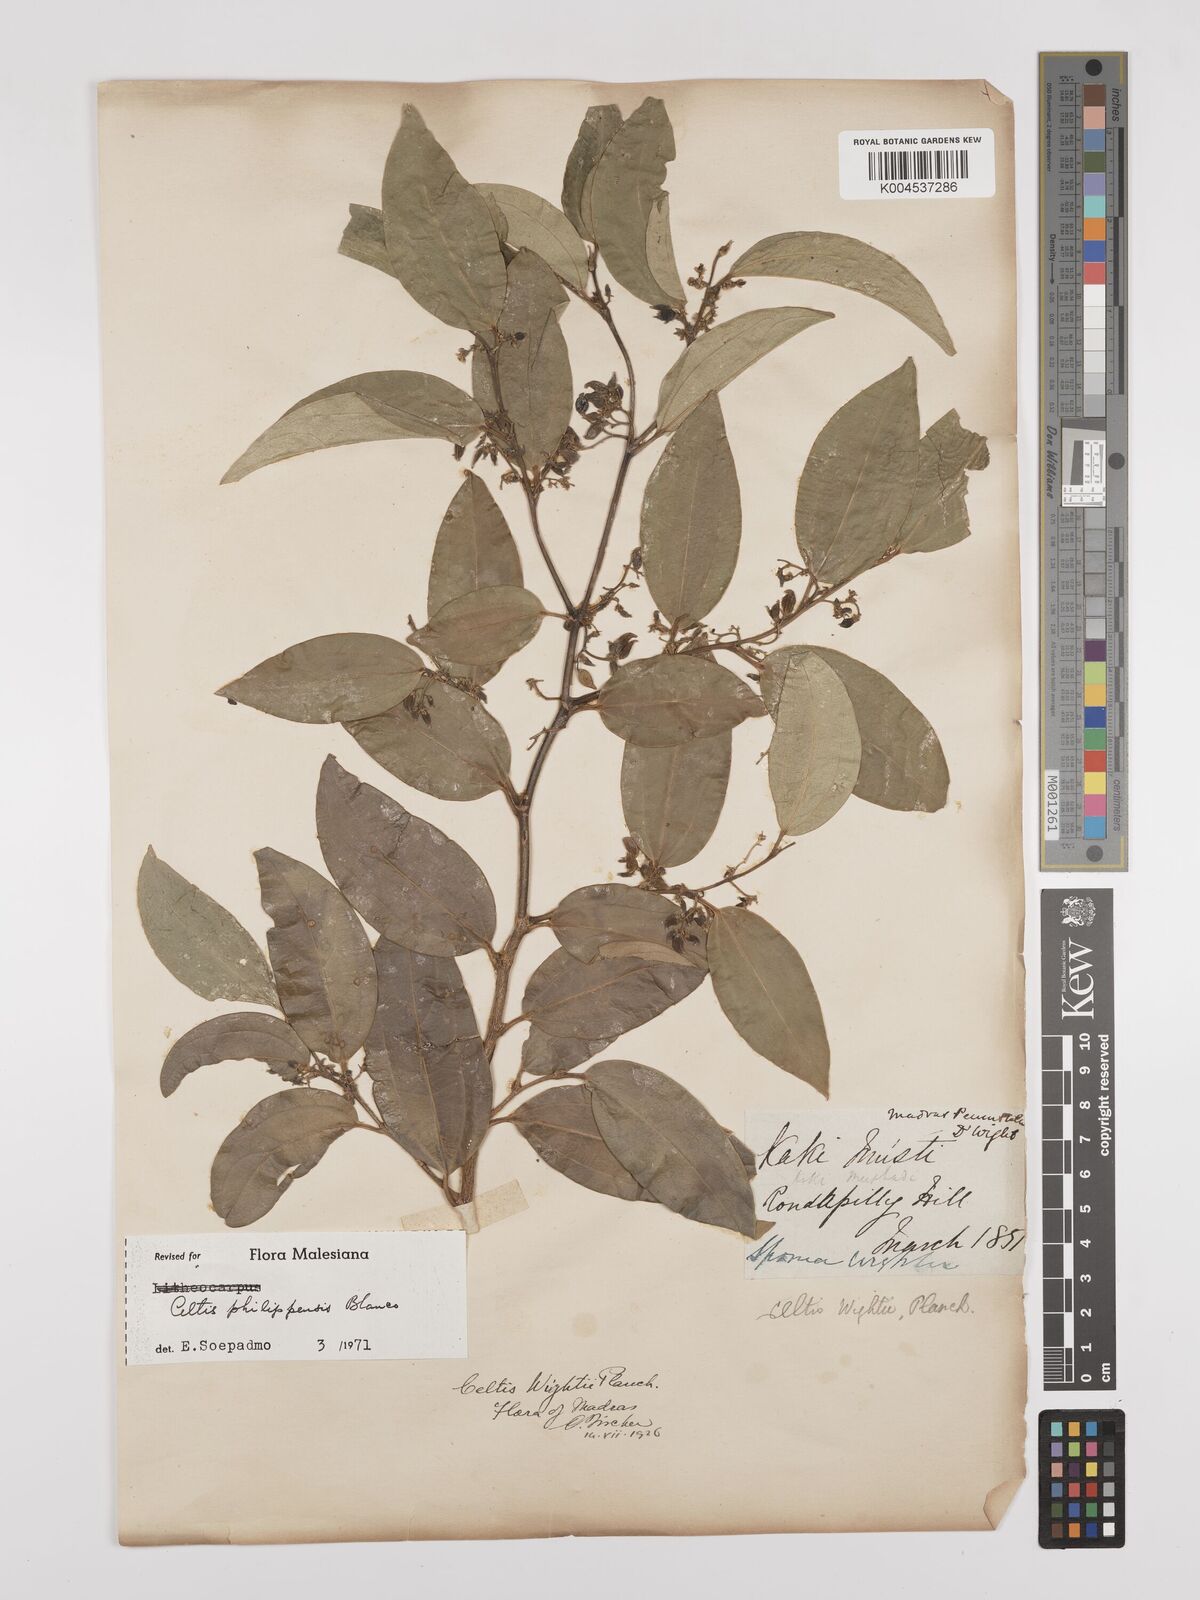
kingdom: Plantae
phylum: Tracheophyta
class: Magnoliopsida
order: Rosales
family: Cannabaceae
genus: Celtis
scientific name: Celtis philippensis
